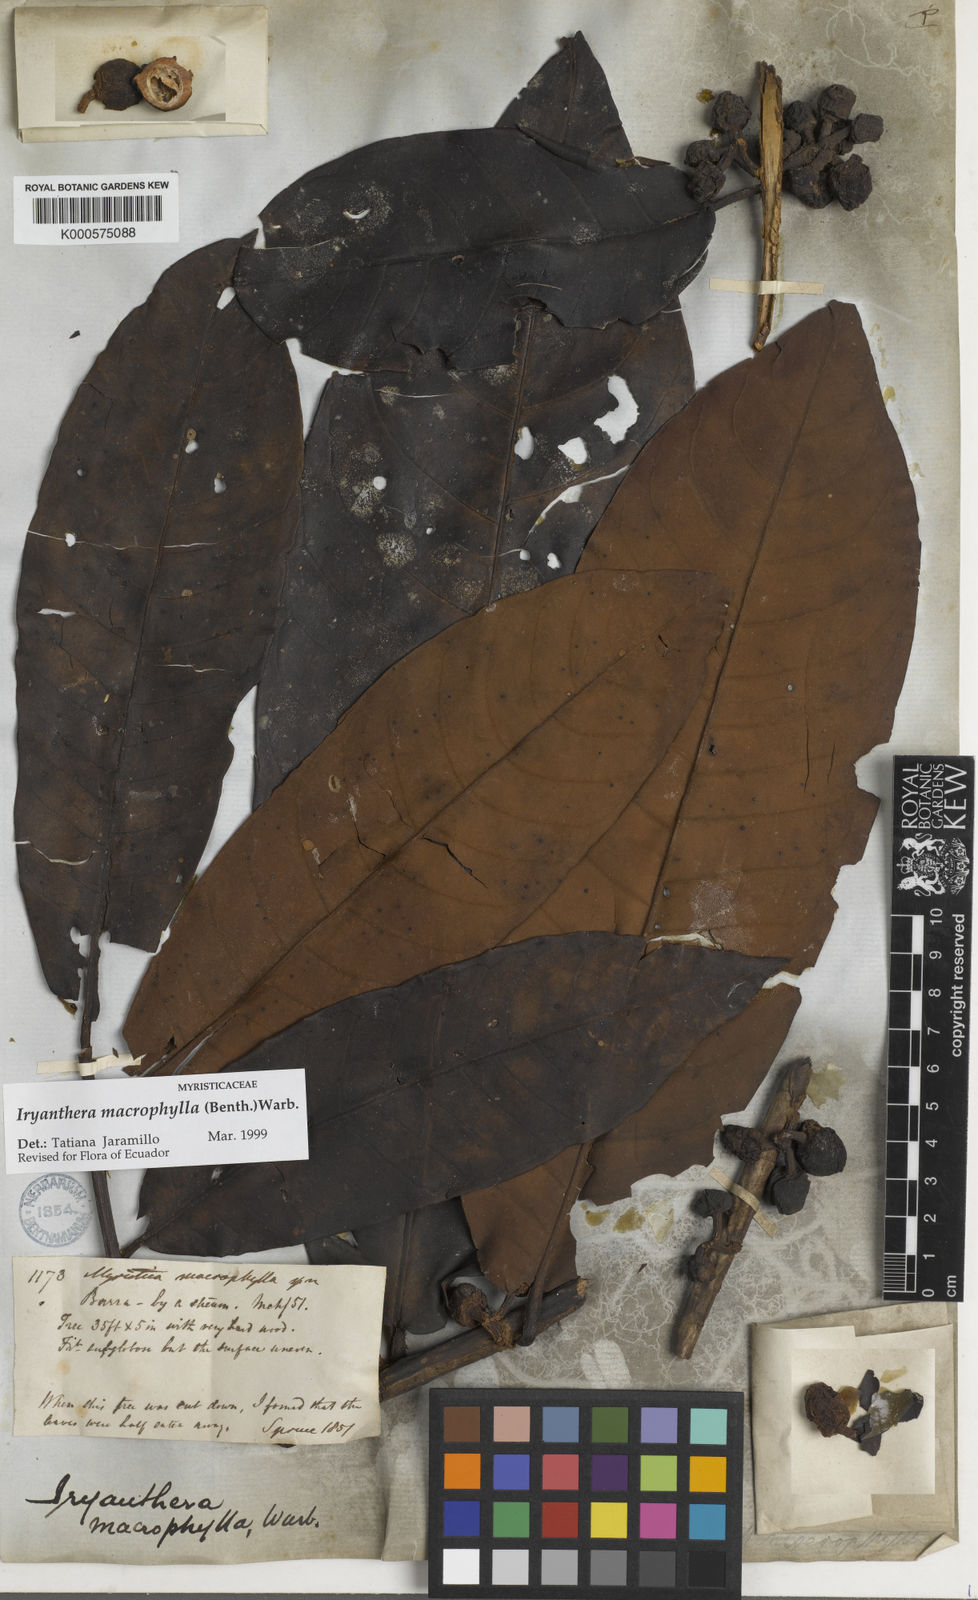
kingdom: Plantae
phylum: Tracheophyta
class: Magnoliopsida
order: Magnoliales
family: Myristicaceae
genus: Iryanthera
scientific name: Iryanthera macrophylla
